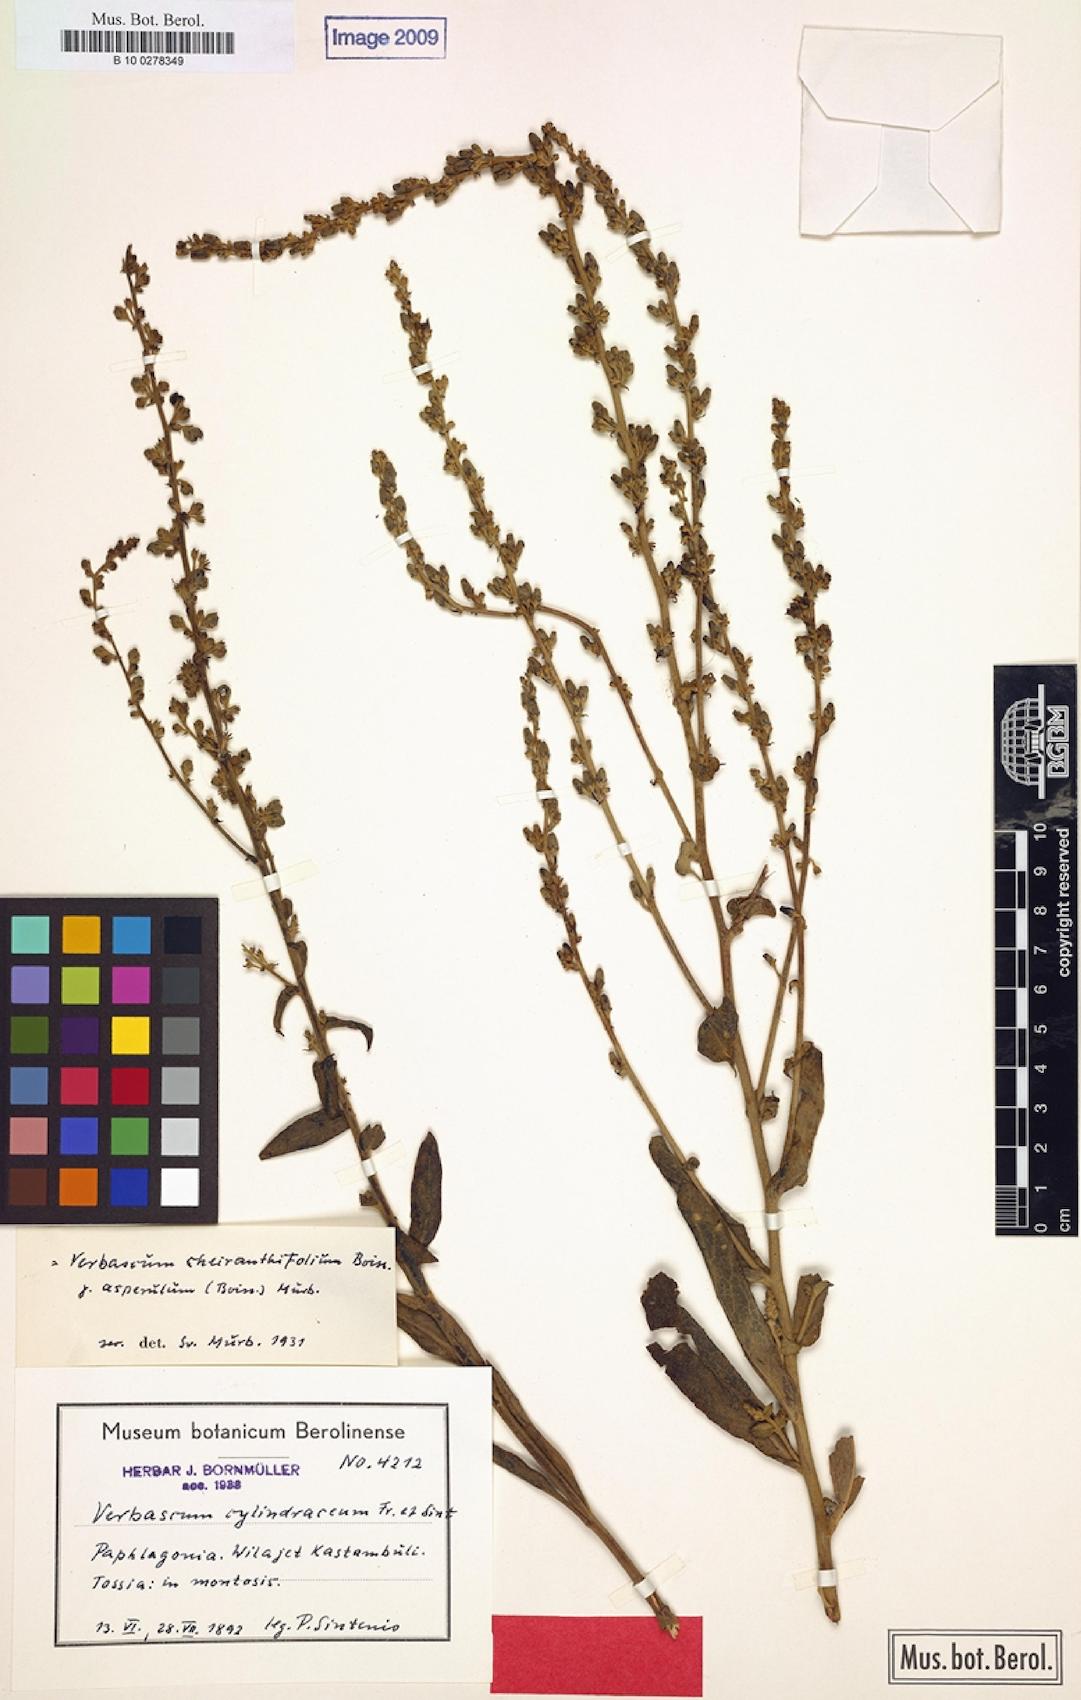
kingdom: Plantae
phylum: Tracheophyta
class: Magnoliopsida
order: Lamiales
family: Scrophulariaceae
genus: Verbascum
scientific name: Verbascum cheiranthifollum
